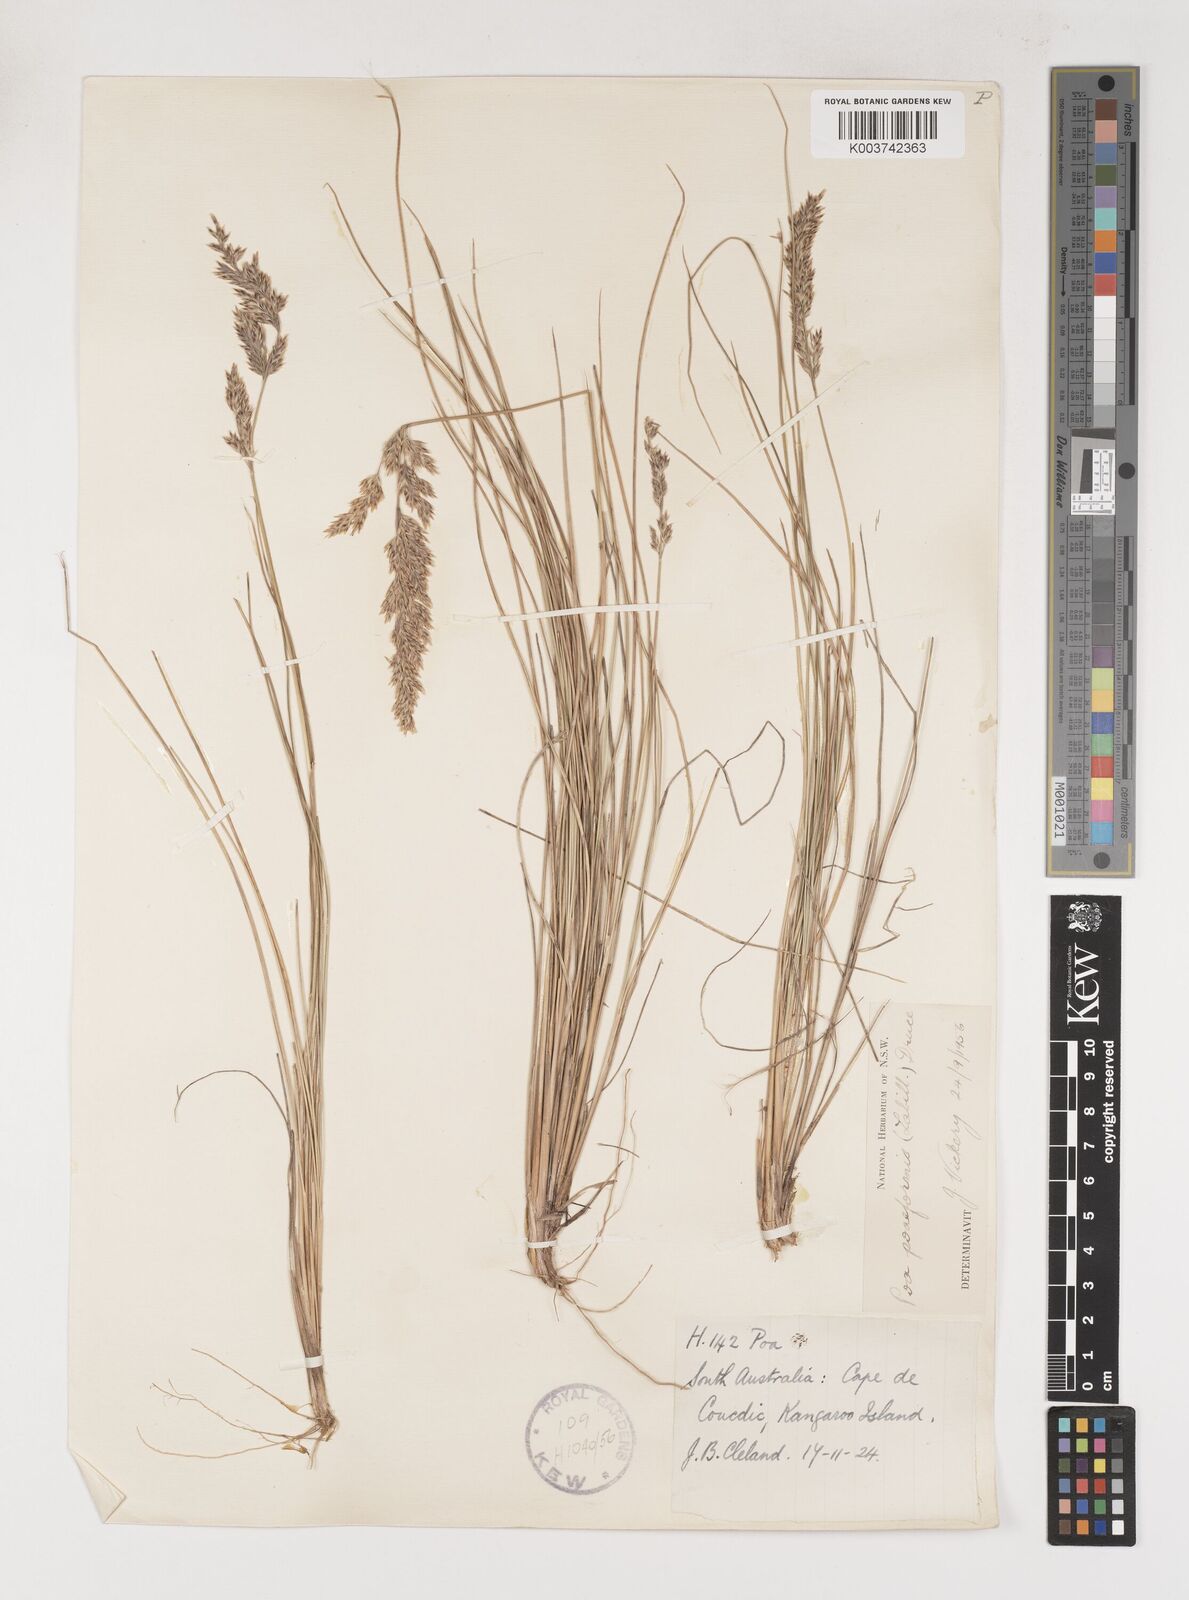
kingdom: Plantae
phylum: Tracheophyta
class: Liliopsida
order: Poales
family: Poaceae
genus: Poa
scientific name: Poa poiformis
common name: Tussock poa
